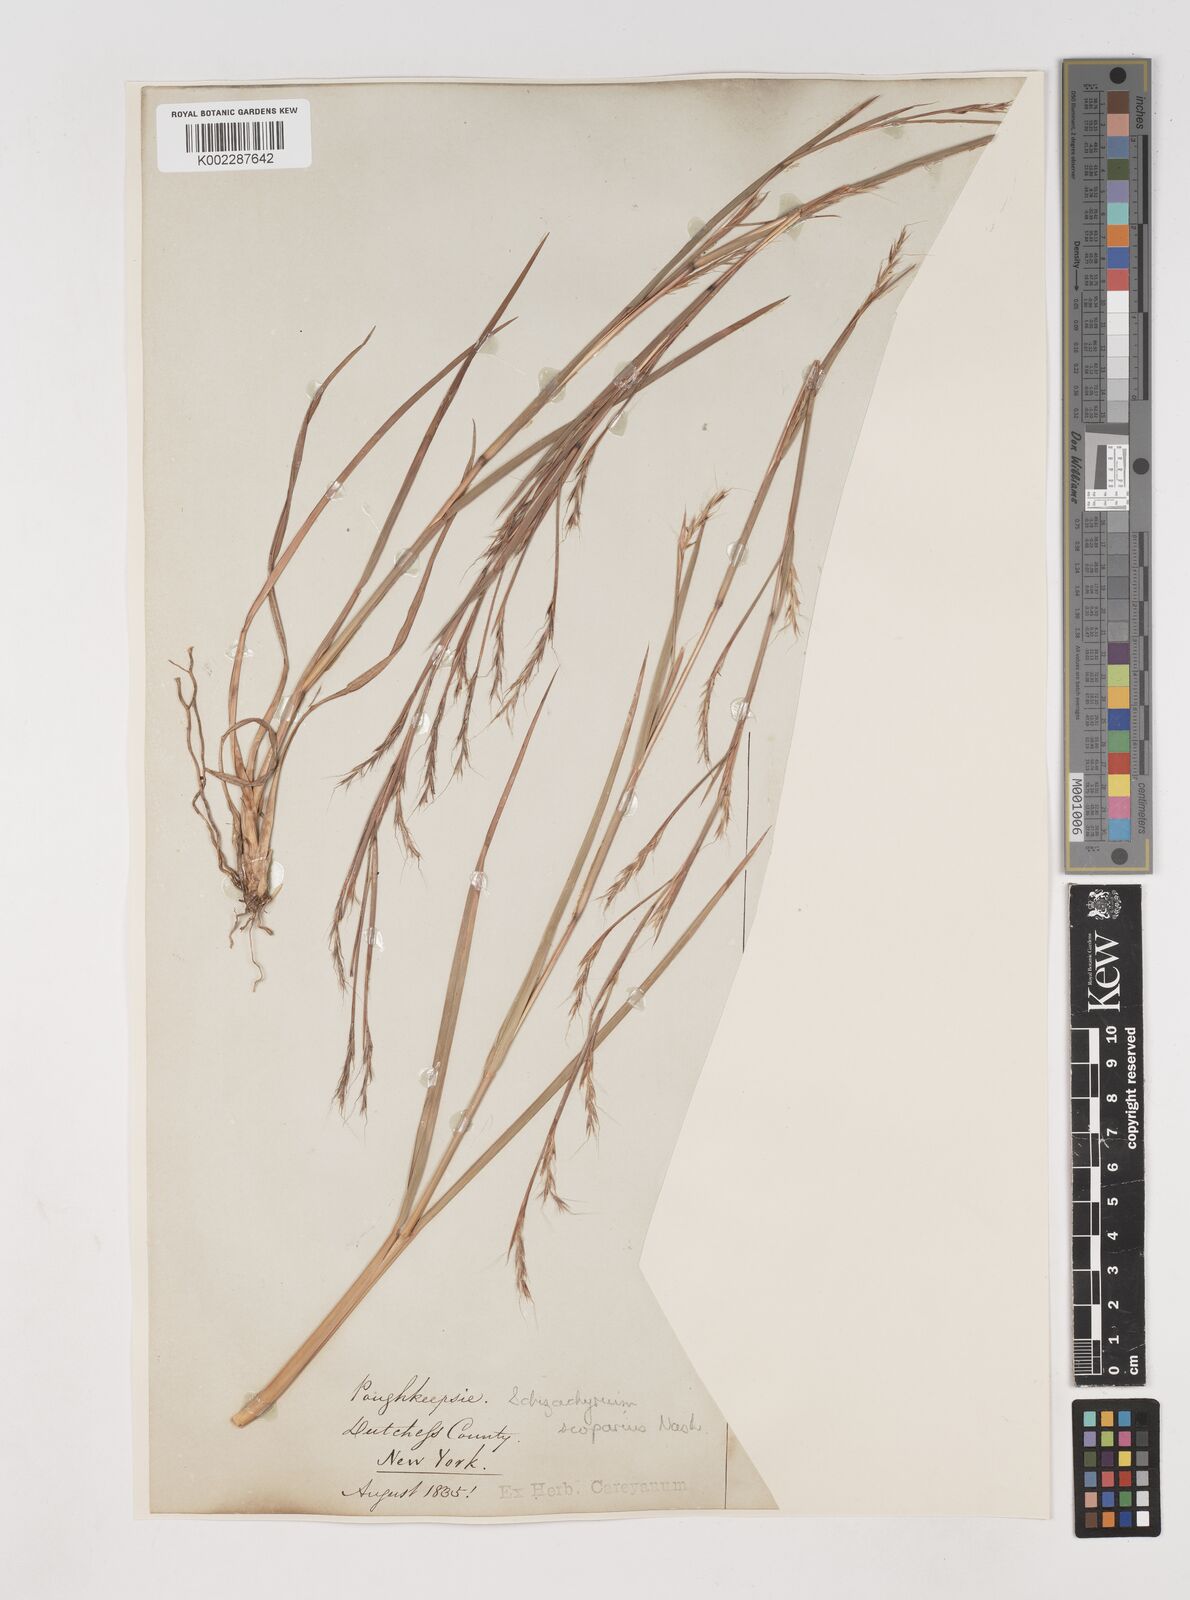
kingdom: Plantae
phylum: Tracheophyta
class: Liliopsida
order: Poales
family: Poaceae
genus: Schizachyrium
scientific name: Schizachyrium scoparium
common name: Little bluestem
